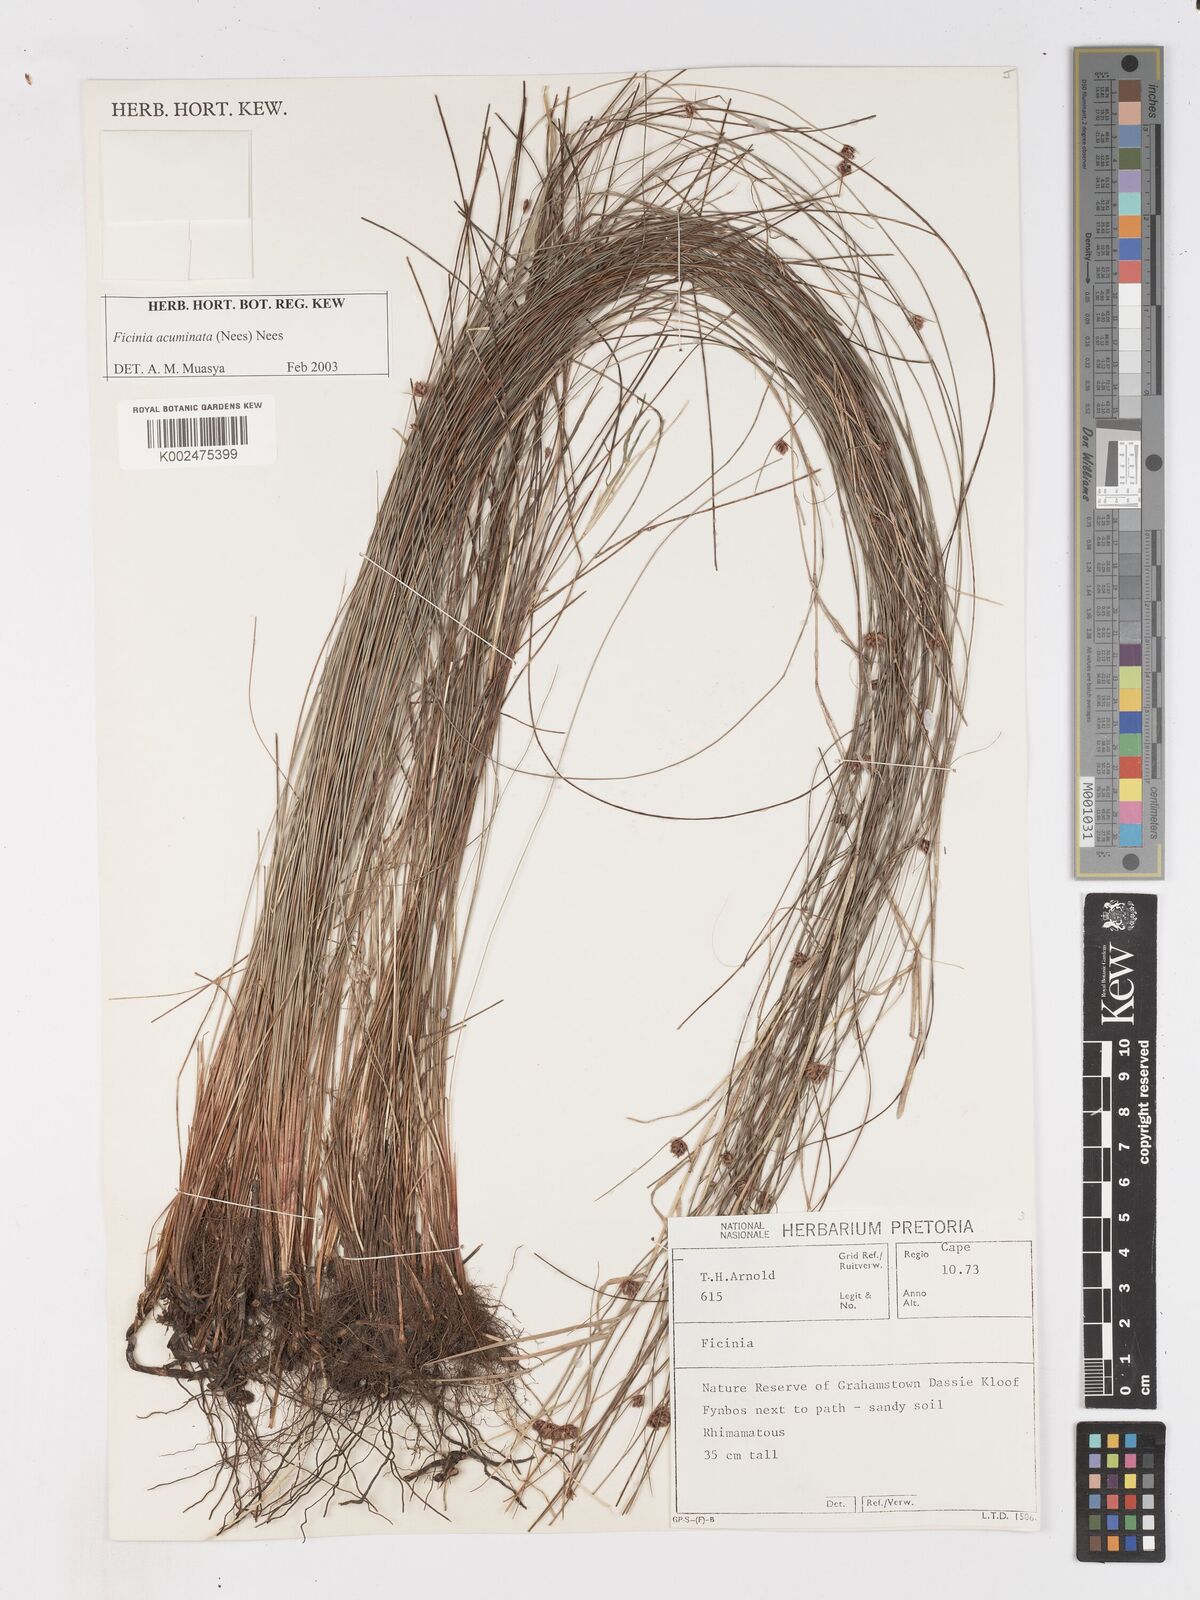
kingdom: Plantae
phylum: Tracheophyta
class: Liliopsida
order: Poales
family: Cyperaceae
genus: Ficinia
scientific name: Ficinia acuminata
